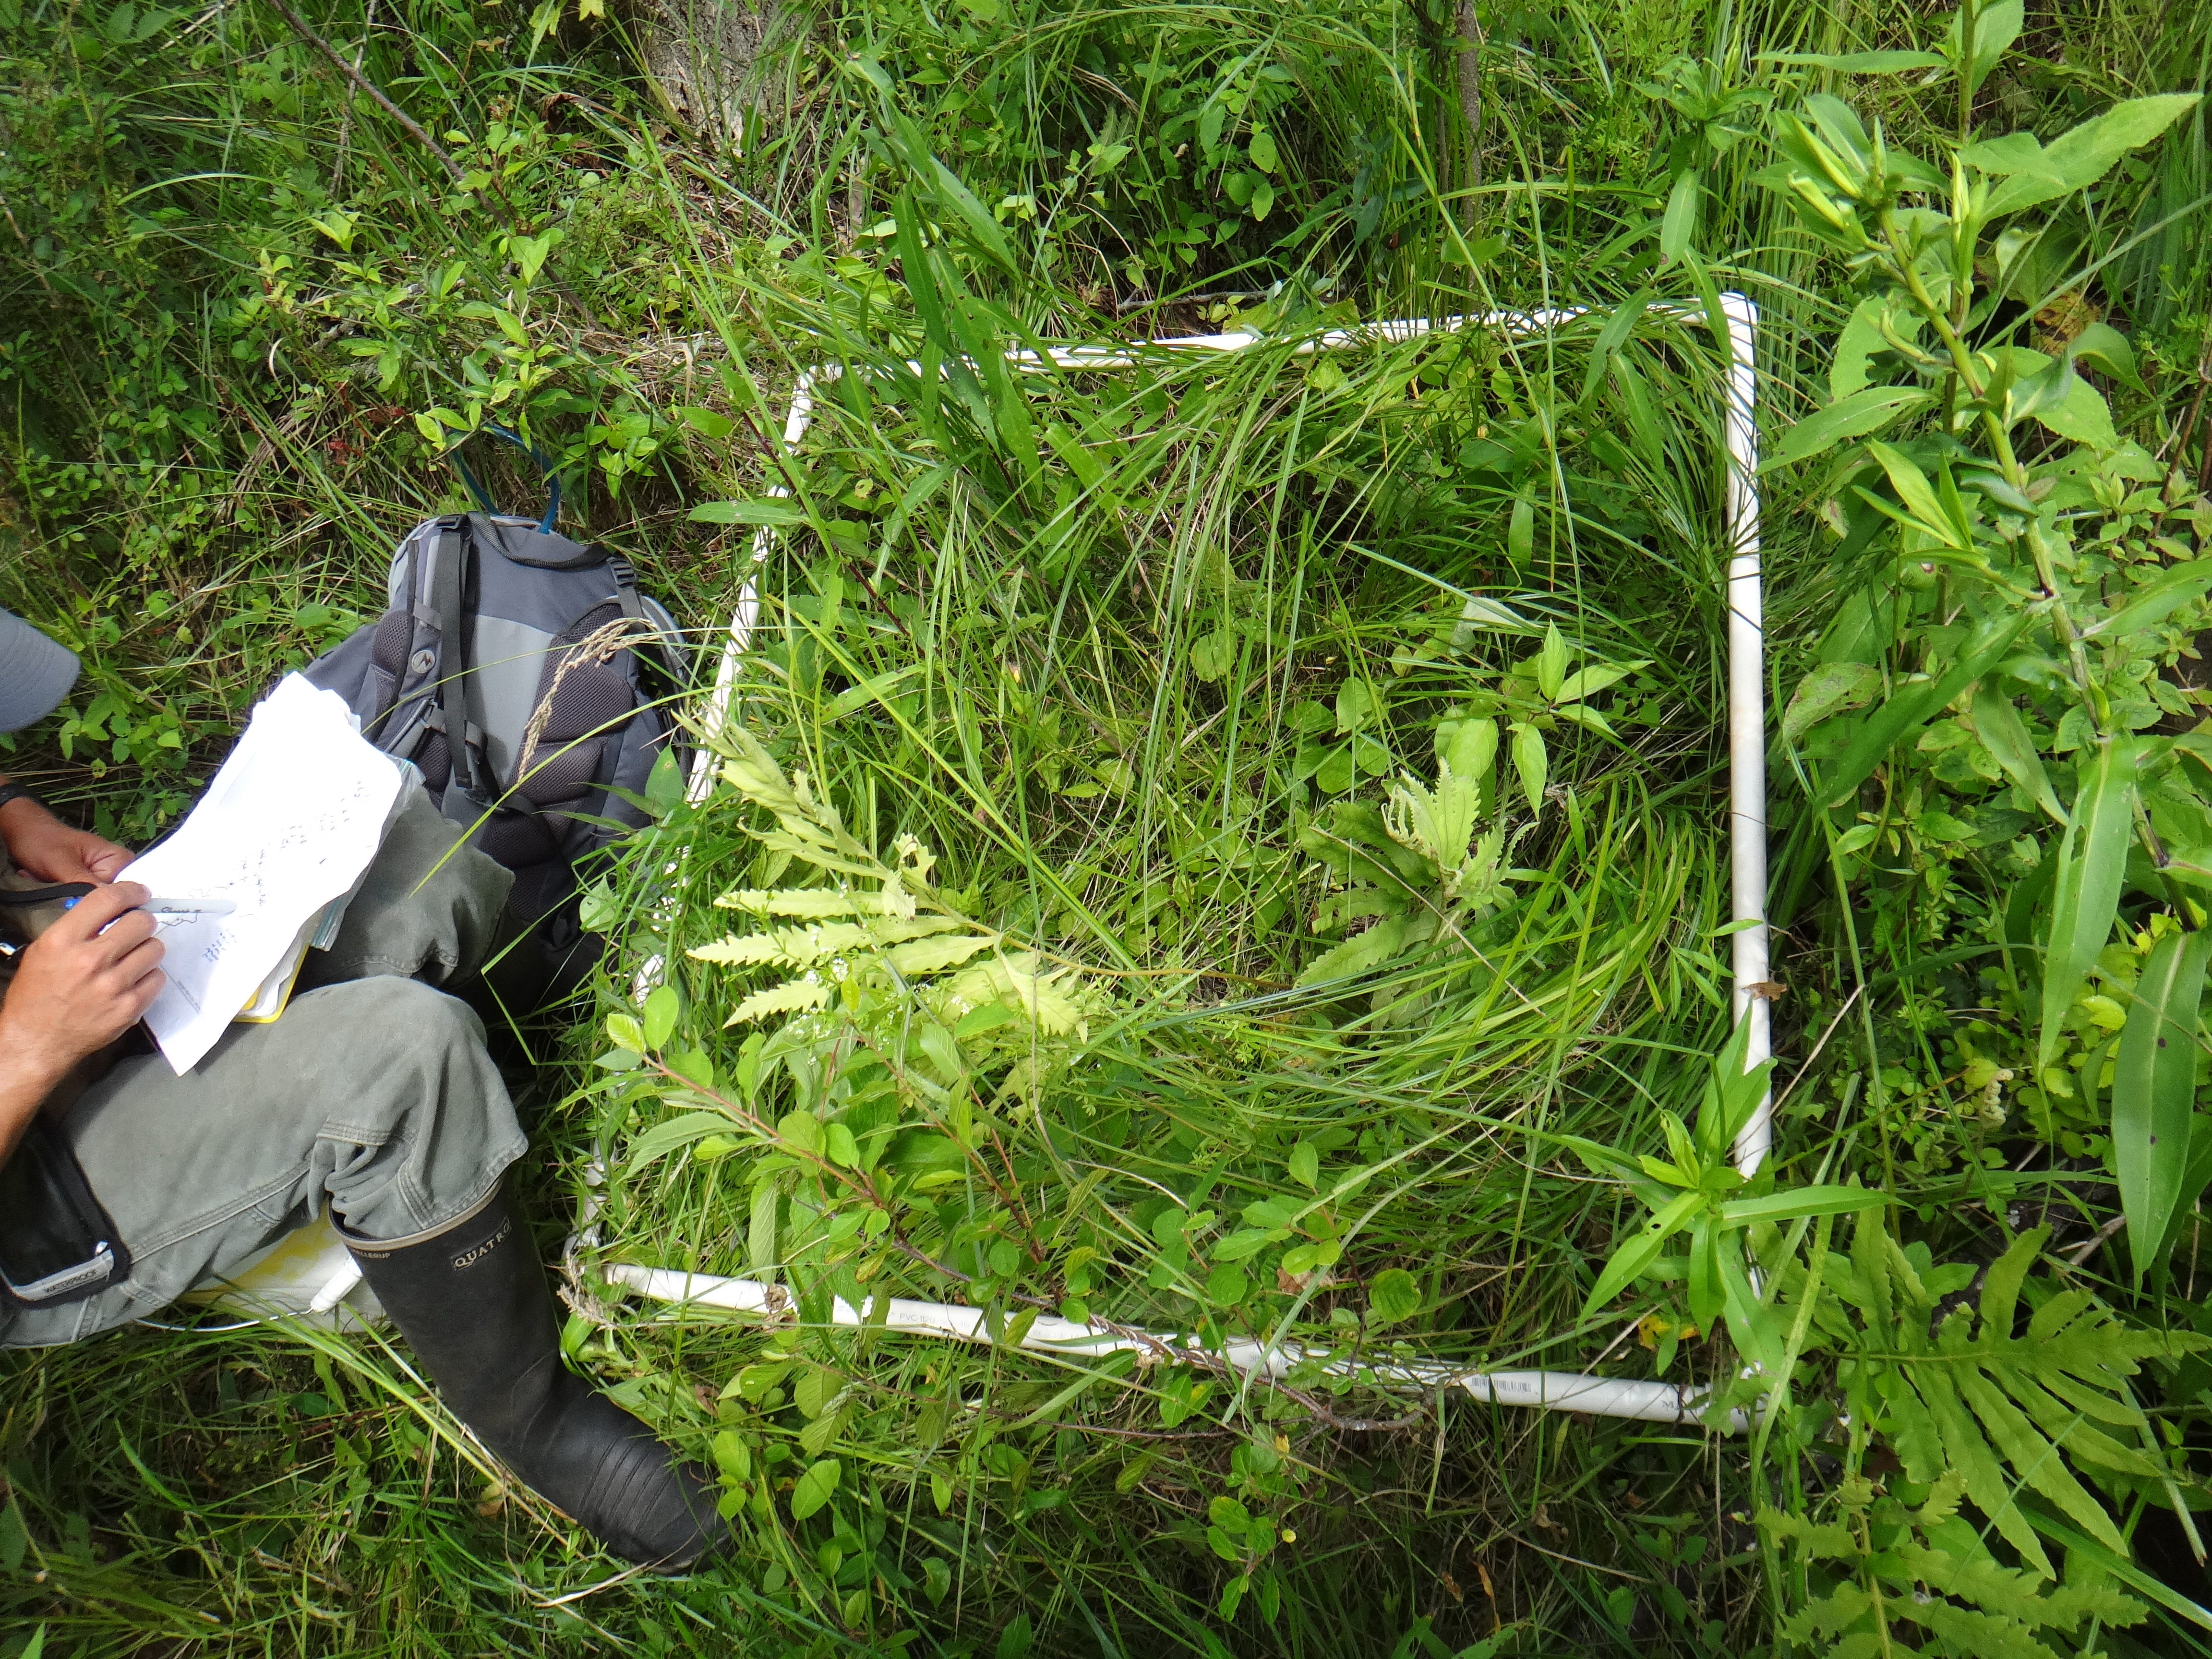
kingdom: Plantae
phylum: Tracheophyta
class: Magnoliopsida
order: Sapindales
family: Anacardiaceae
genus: Toxicodendron
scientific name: Toxicodendron radicans
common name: Poison ivy
